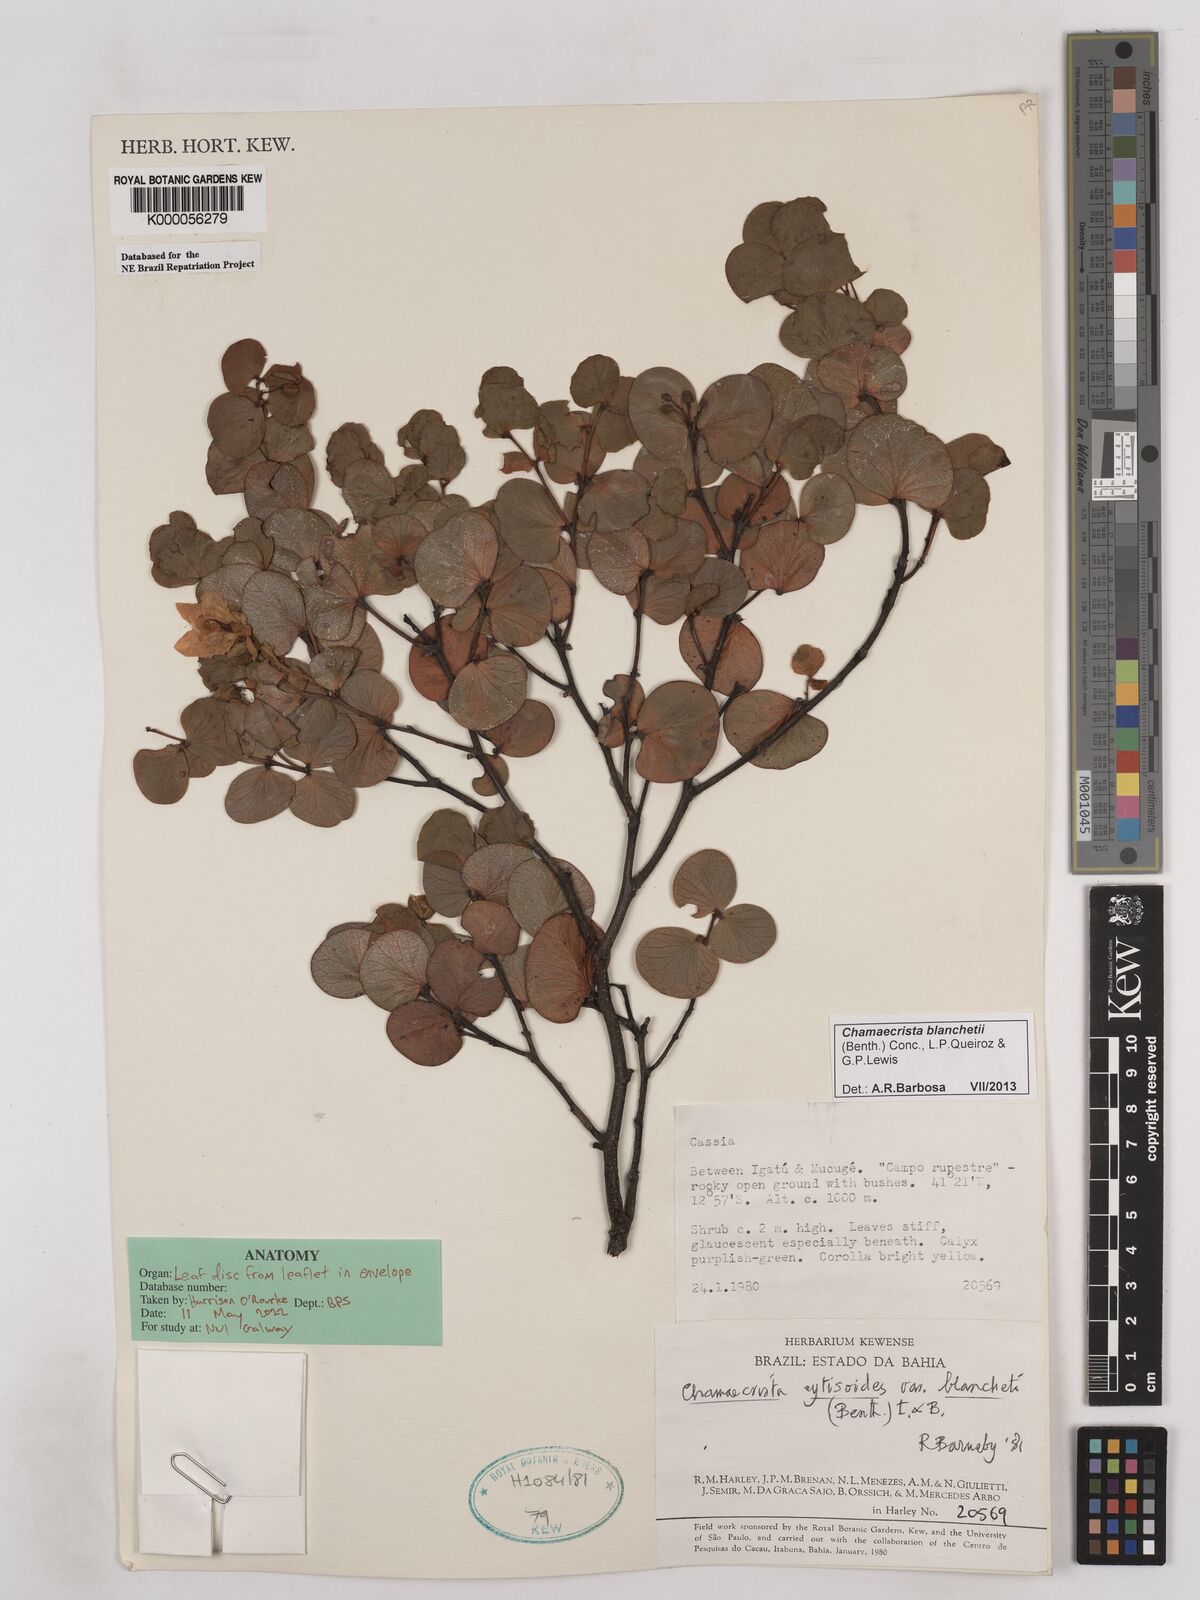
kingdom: Plantae
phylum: Tracheophyta
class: Magnoliopsida
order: Fabales
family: Fabaceae
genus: Chamaecrista
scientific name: Chamaecrista cytisoides
